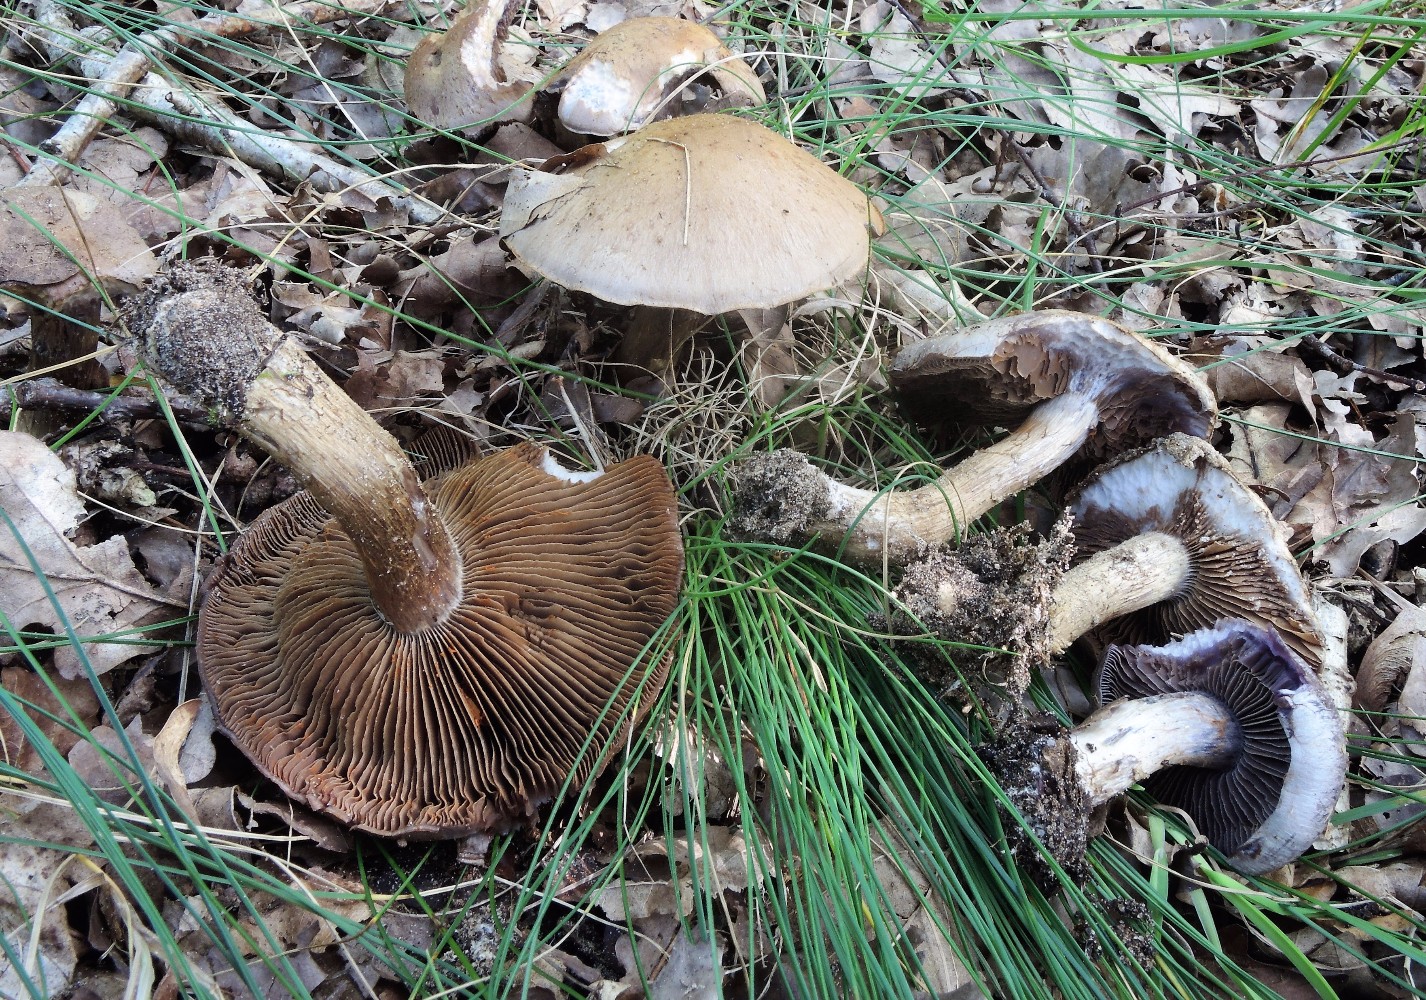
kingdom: Fungi
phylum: Basidiomycota
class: Agaricomycetes
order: Agaricales
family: Cortinariaceae
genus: Cortinarius
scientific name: Cortinarius
